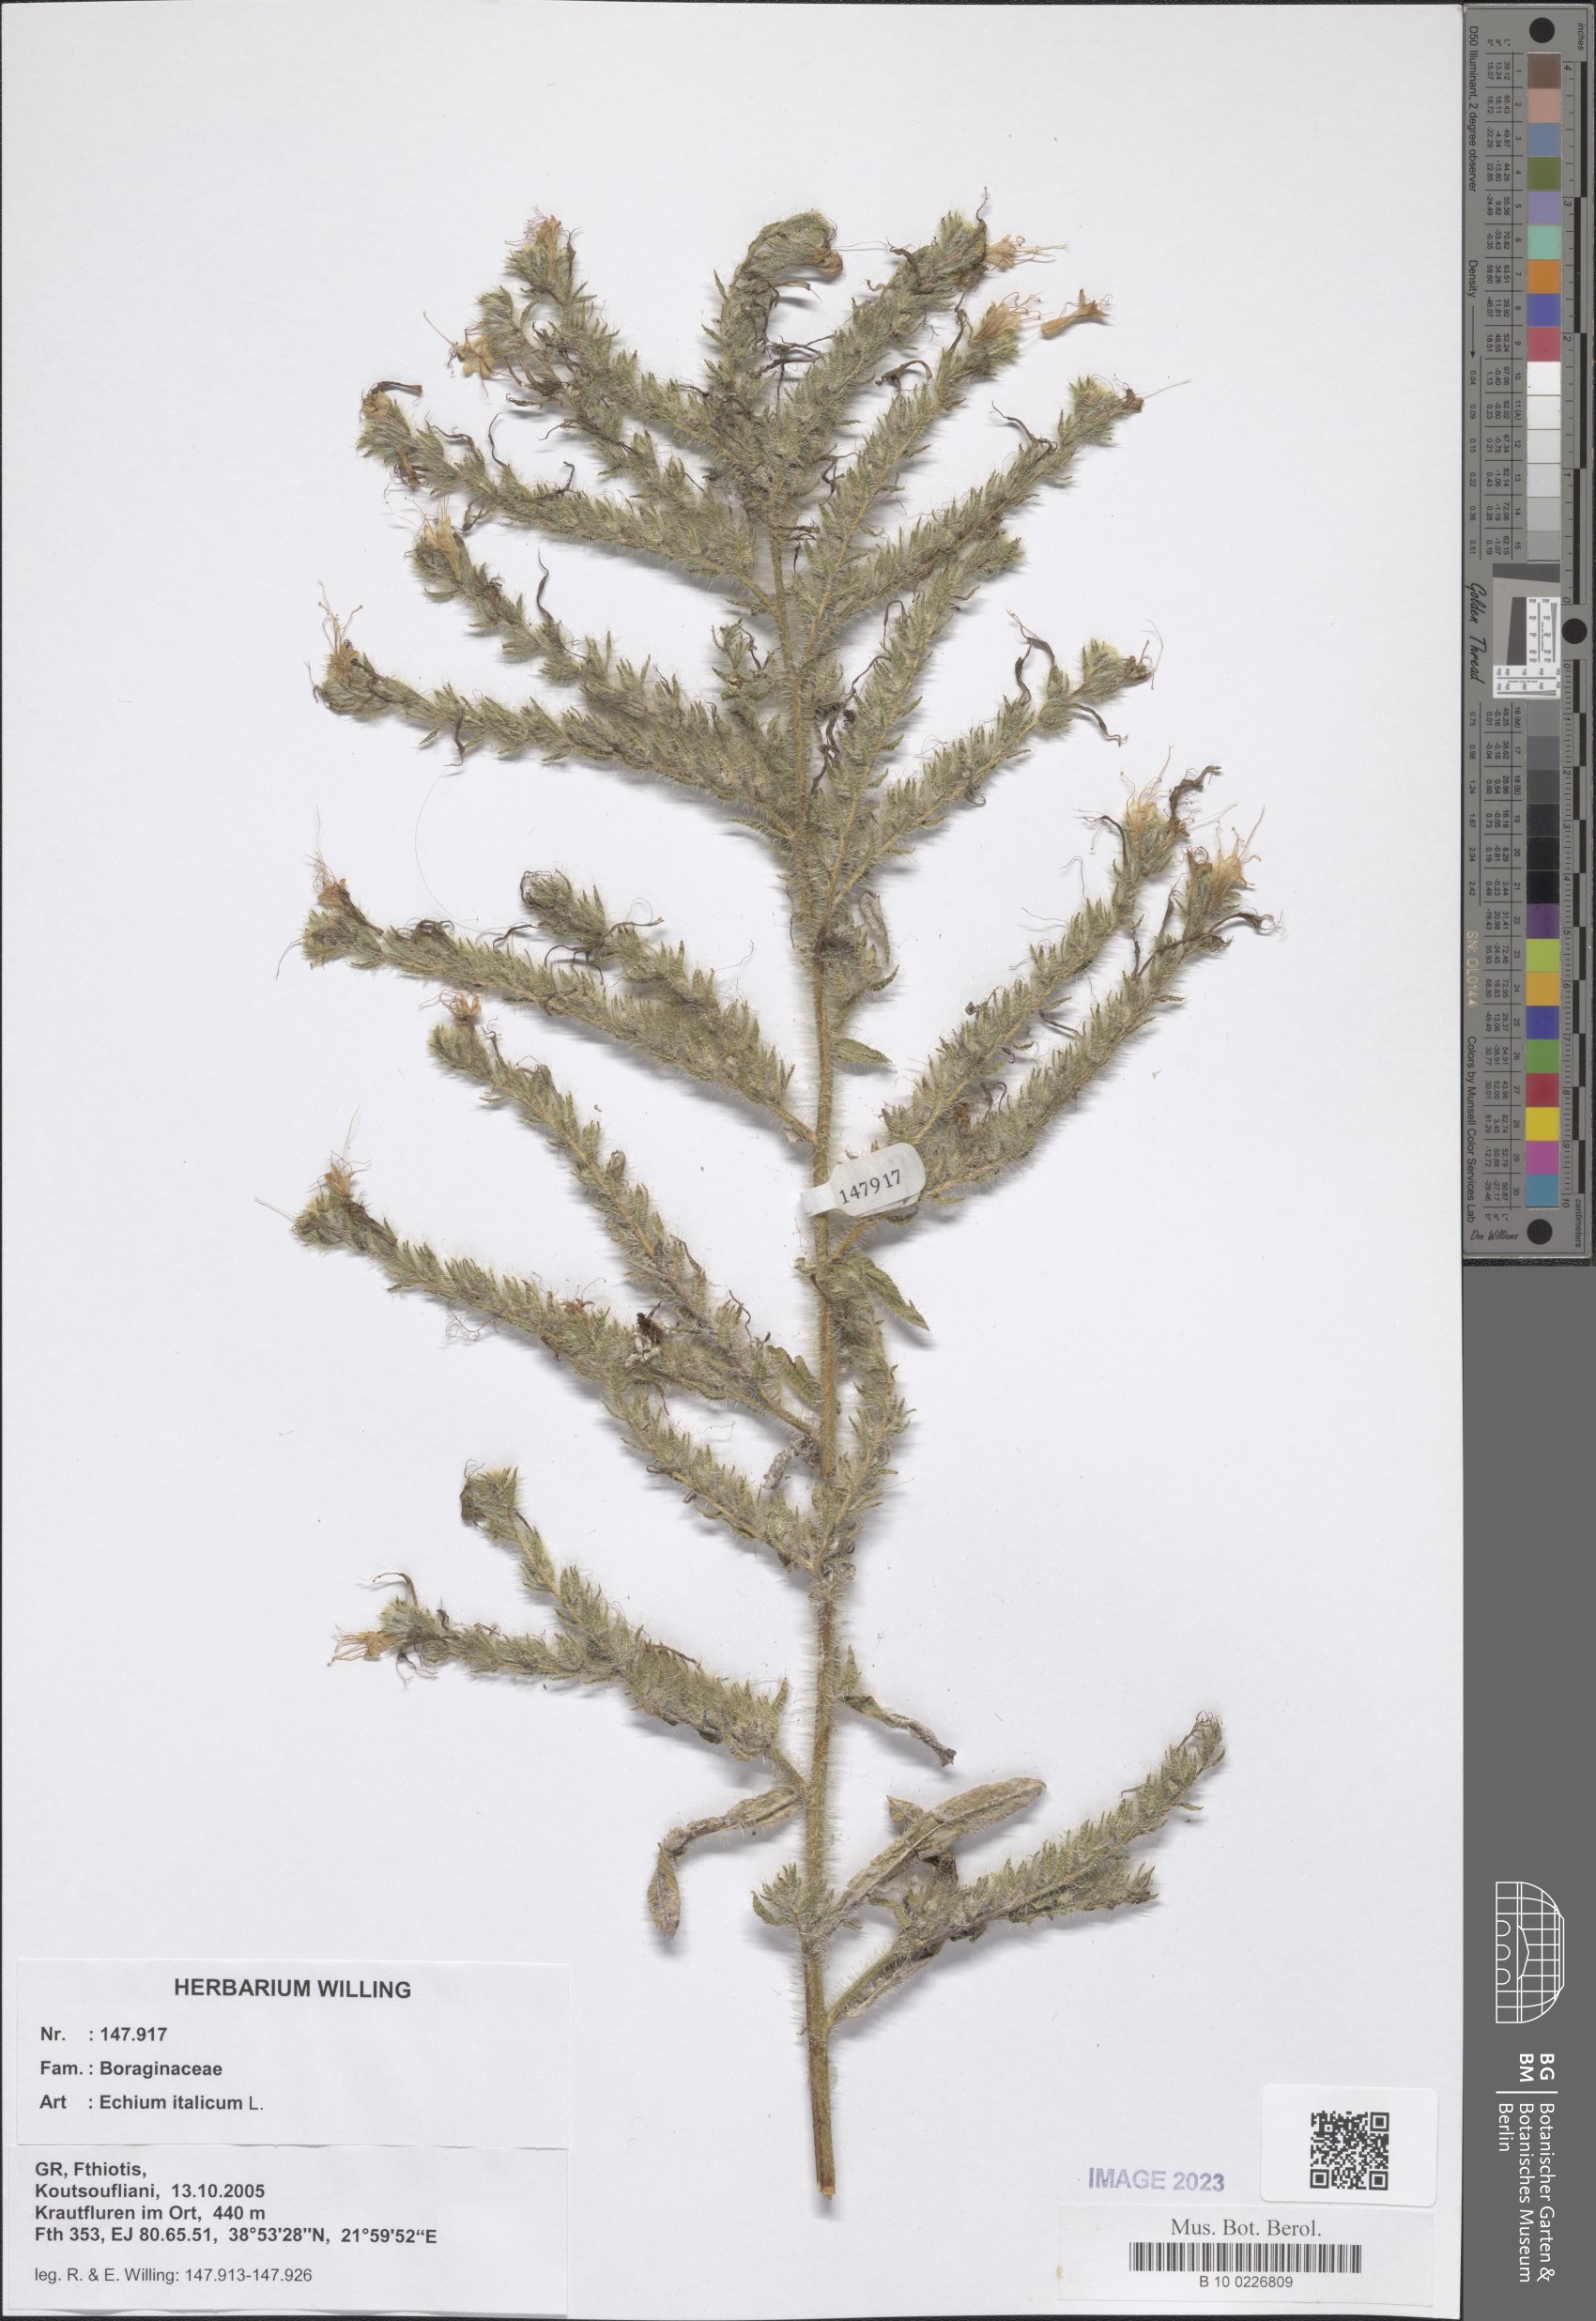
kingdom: Plantae
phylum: Tracheophyta
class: Magnoliopsida
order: Boraginales
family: Boraginaceae
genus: Echium
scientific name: Echium italicum
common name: Italian viper's bugloss
